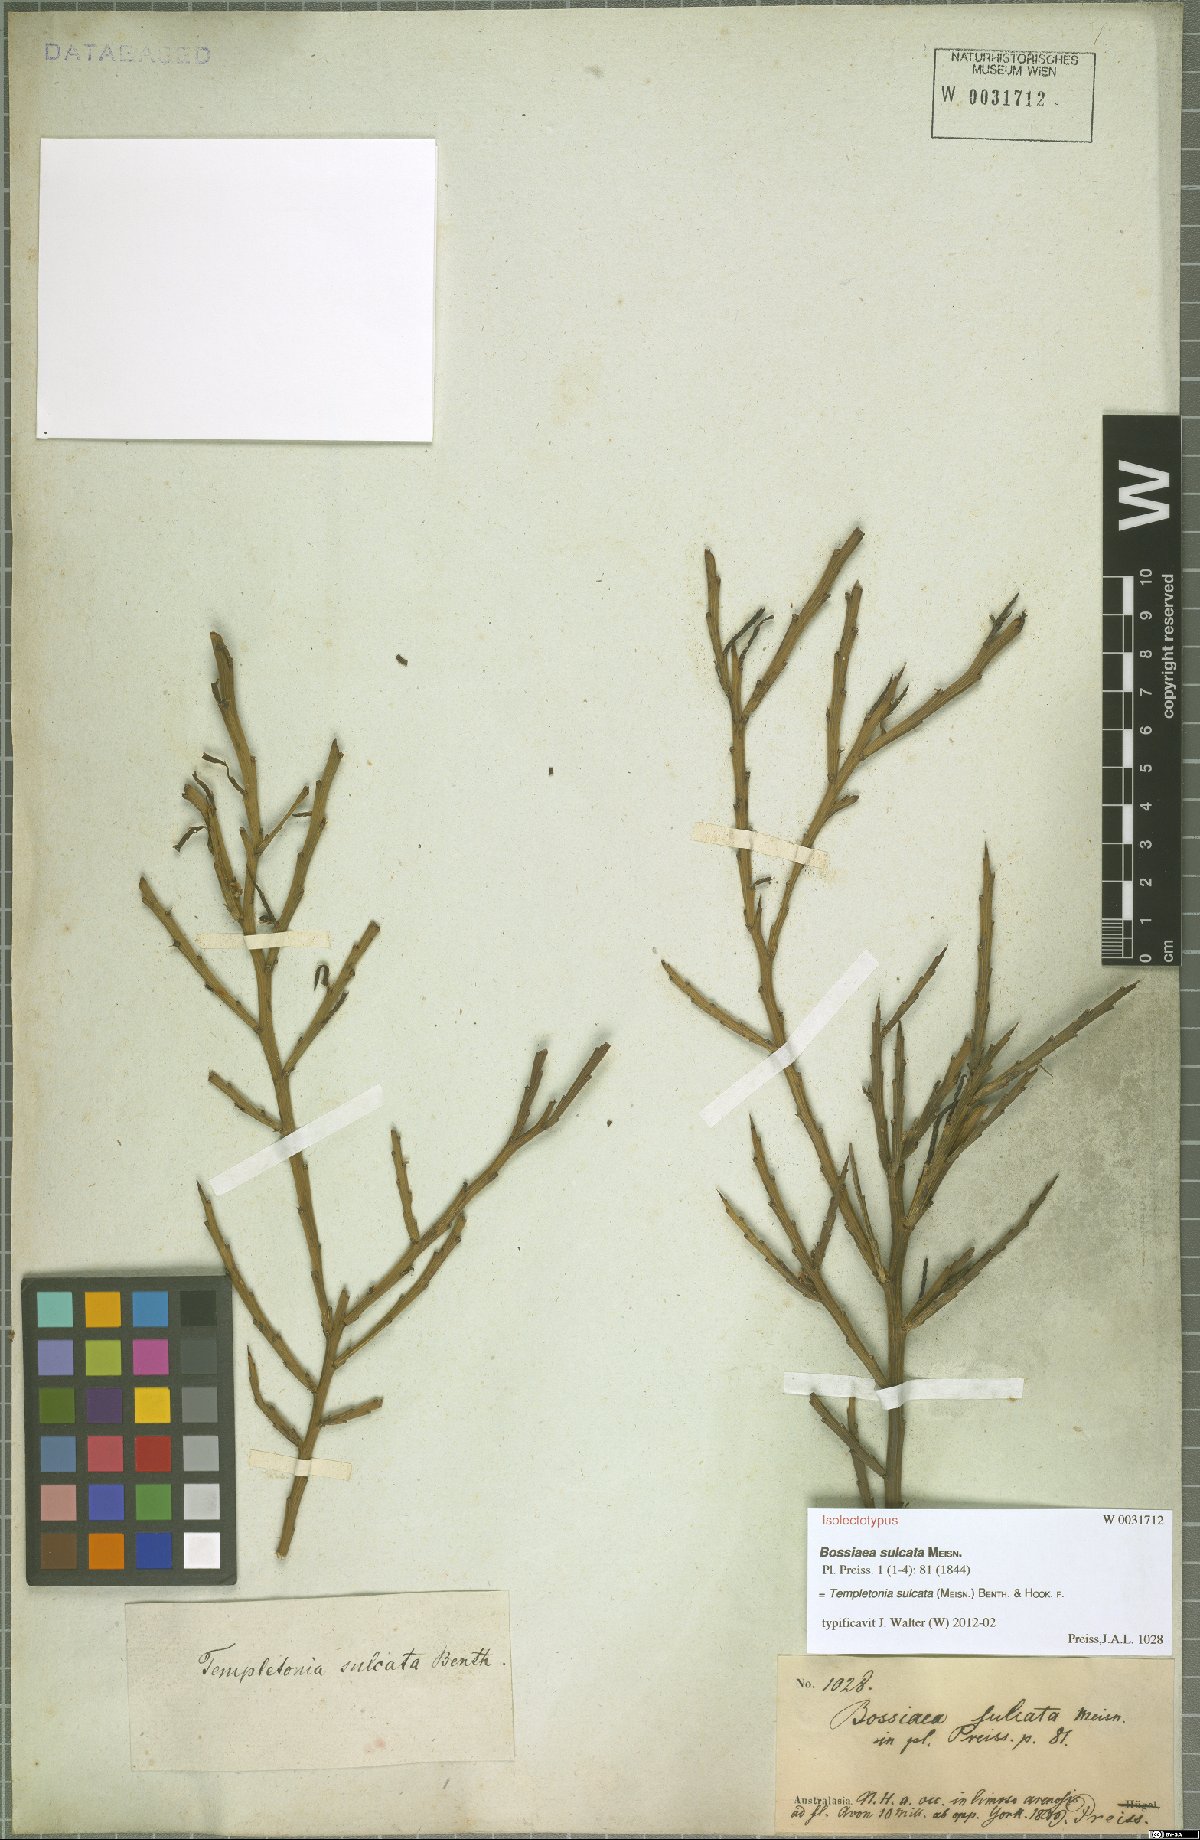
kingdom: Plantae
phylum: Tracheophyta
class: Magnoliopsida
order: Fabales
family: Fabaceae
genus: Templetonia
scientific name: Templetonia sulcata
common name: Flat mallee-pea
